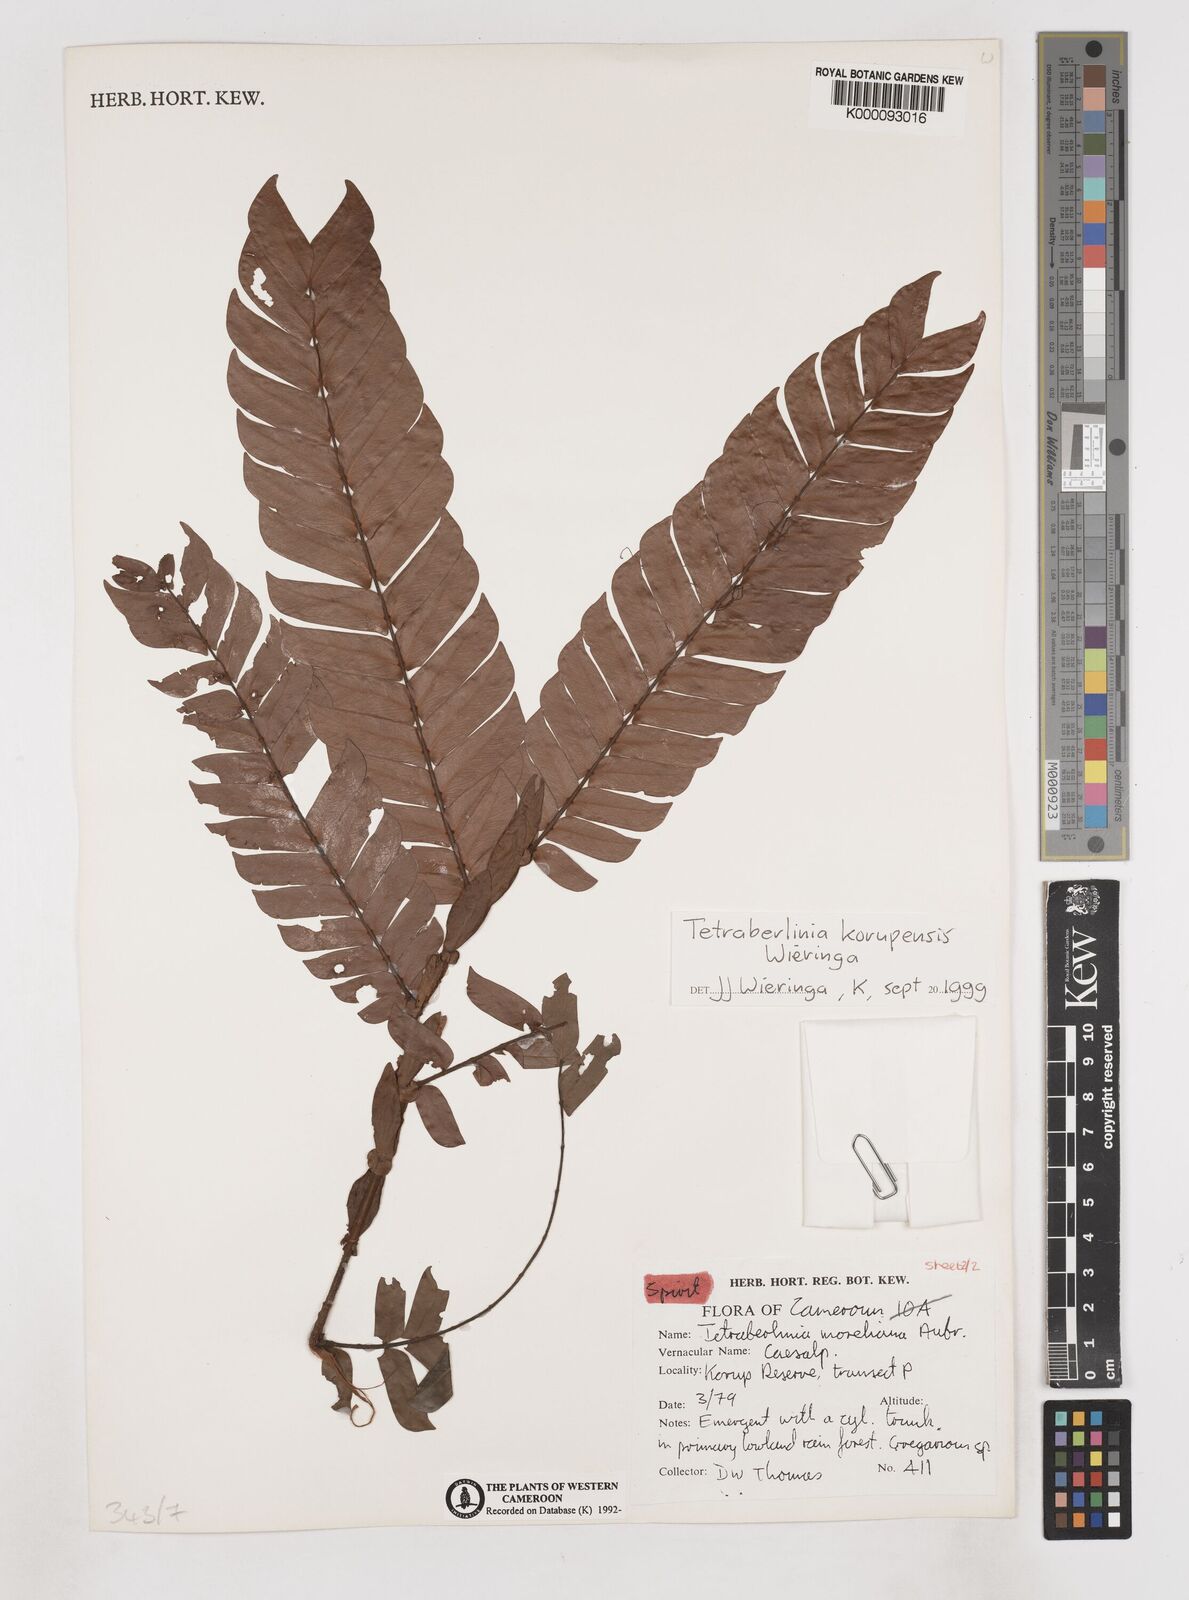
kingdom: Plantae
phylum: Tracheophyta
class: Magnoliopsida
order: Fabales
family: Fabaceae
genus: Tetraberlinia
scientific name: Tetraberlinia korupensis
